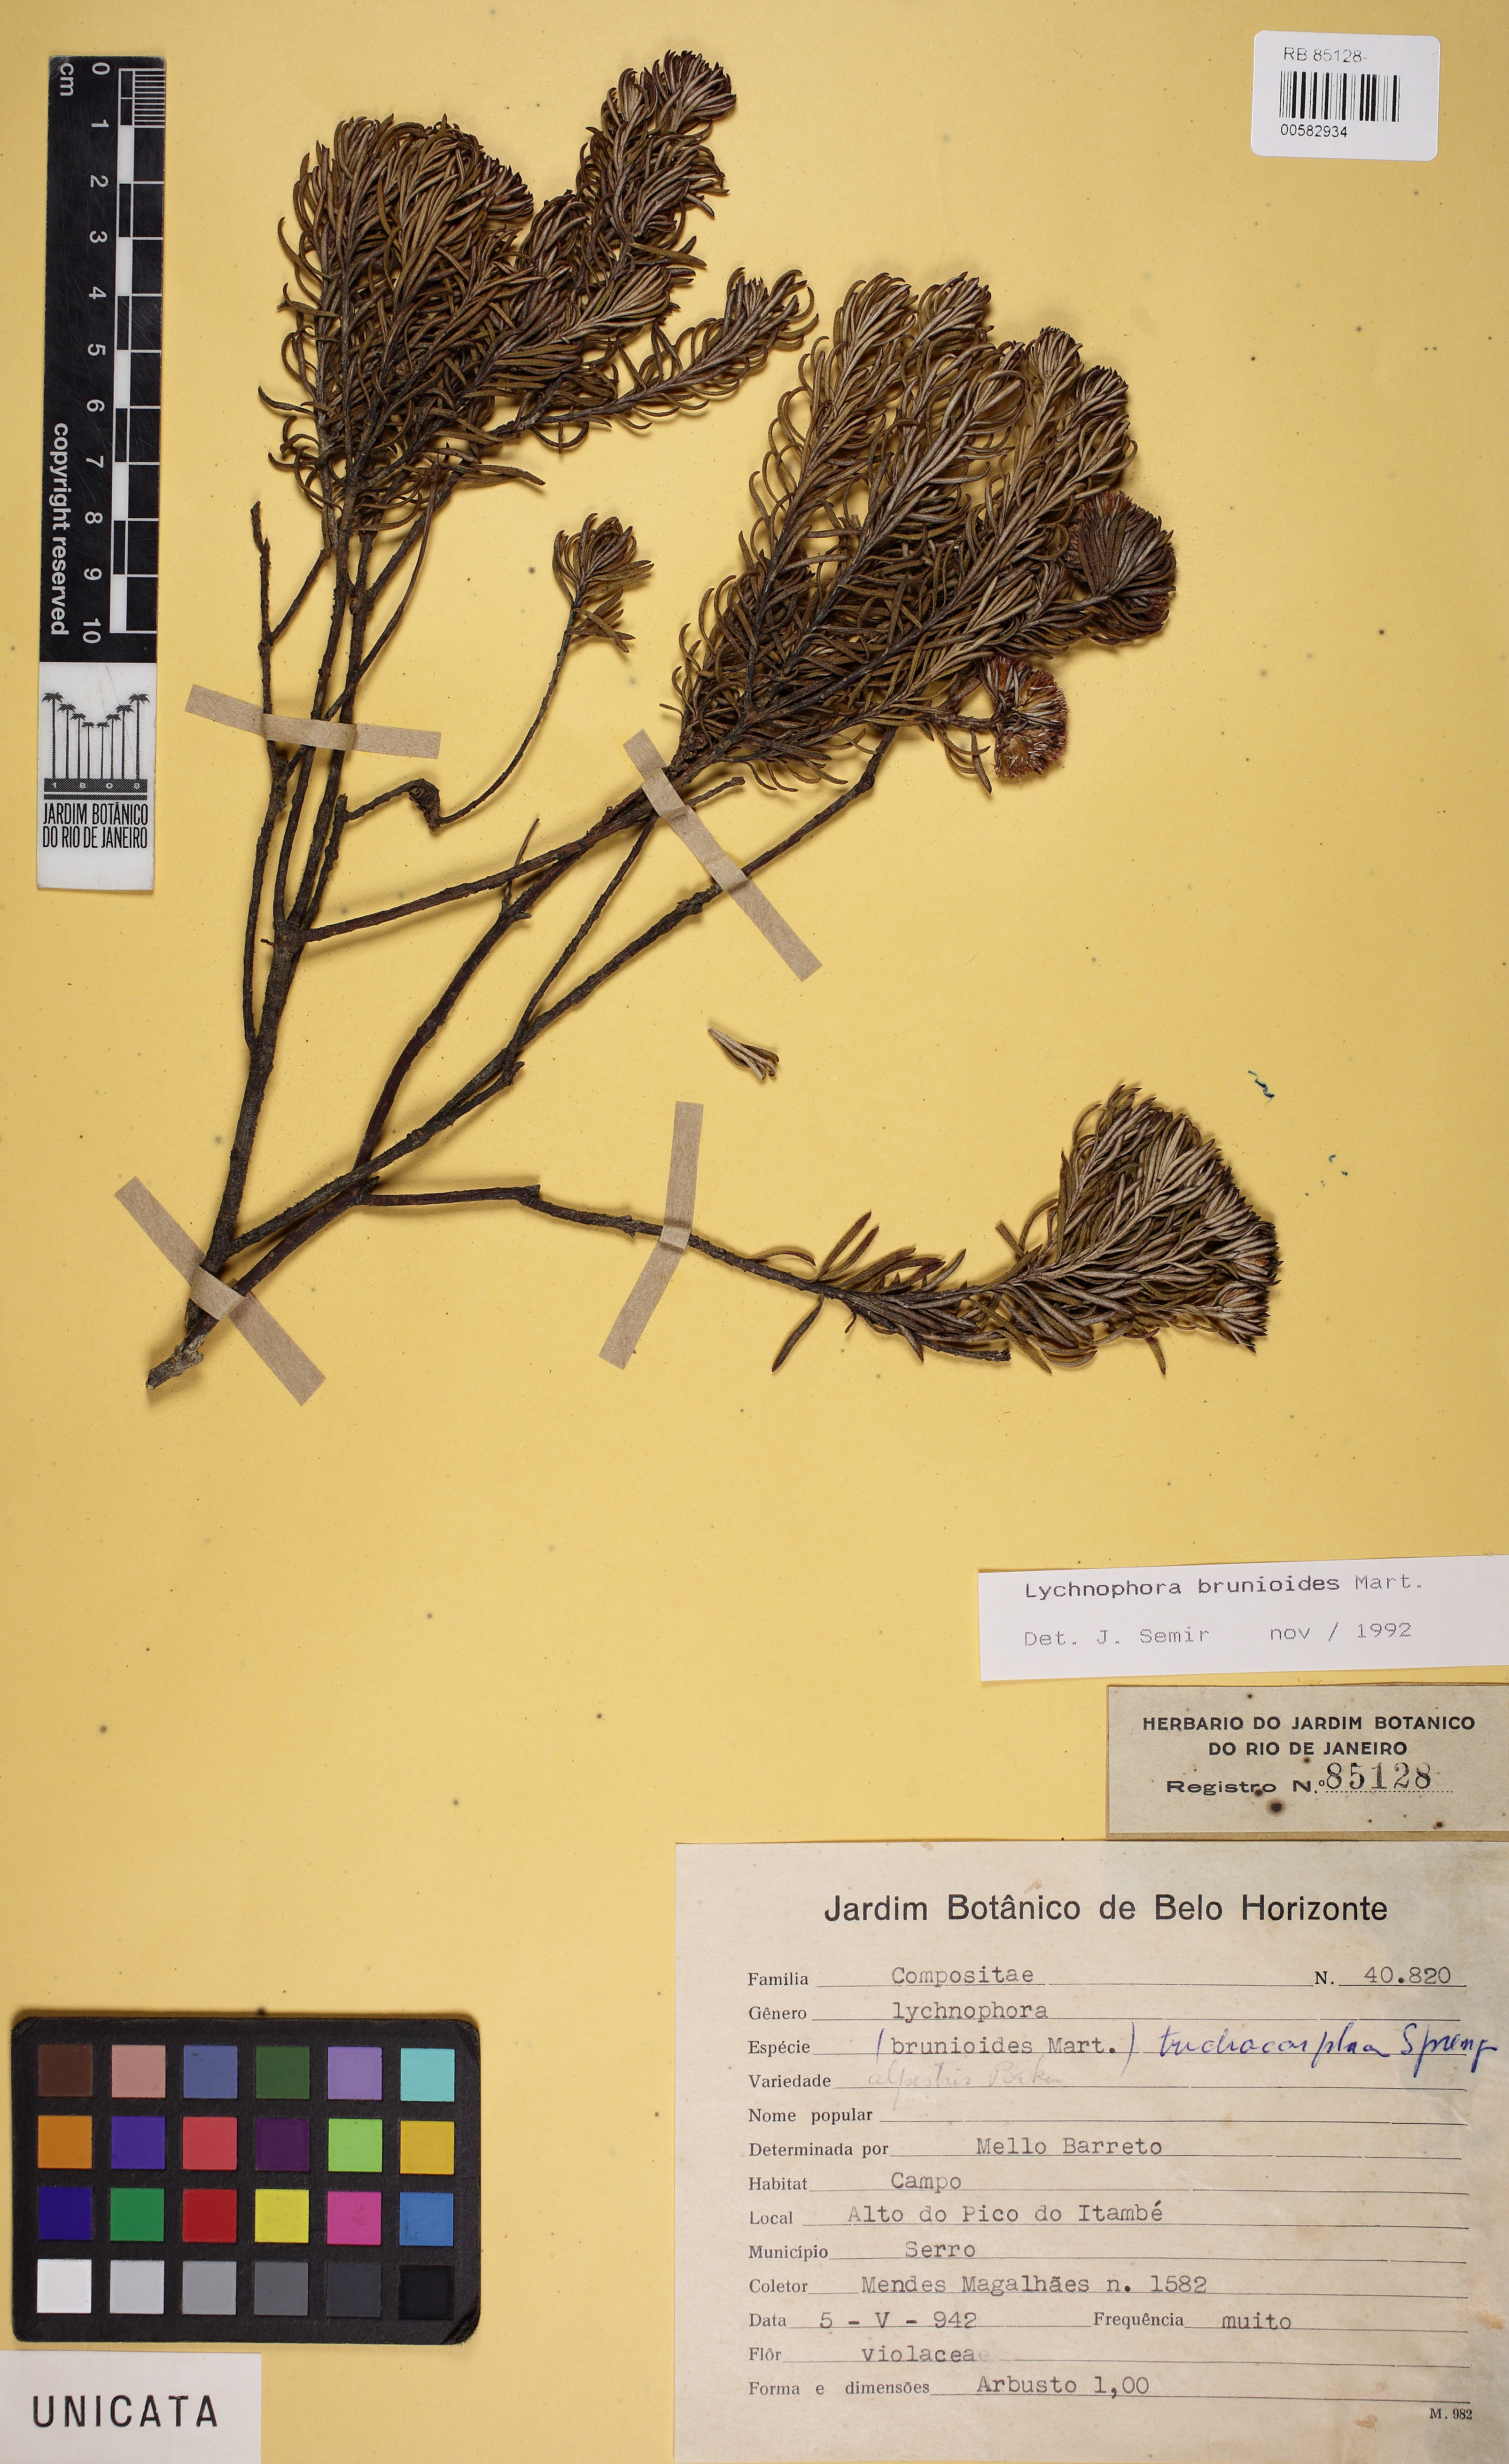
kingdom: Plantae
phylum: Tracheophyta
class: Magnoliopsida
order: Asterales
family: Asteraceae
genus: Lychnophora
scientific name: Lychnophora brunioides
